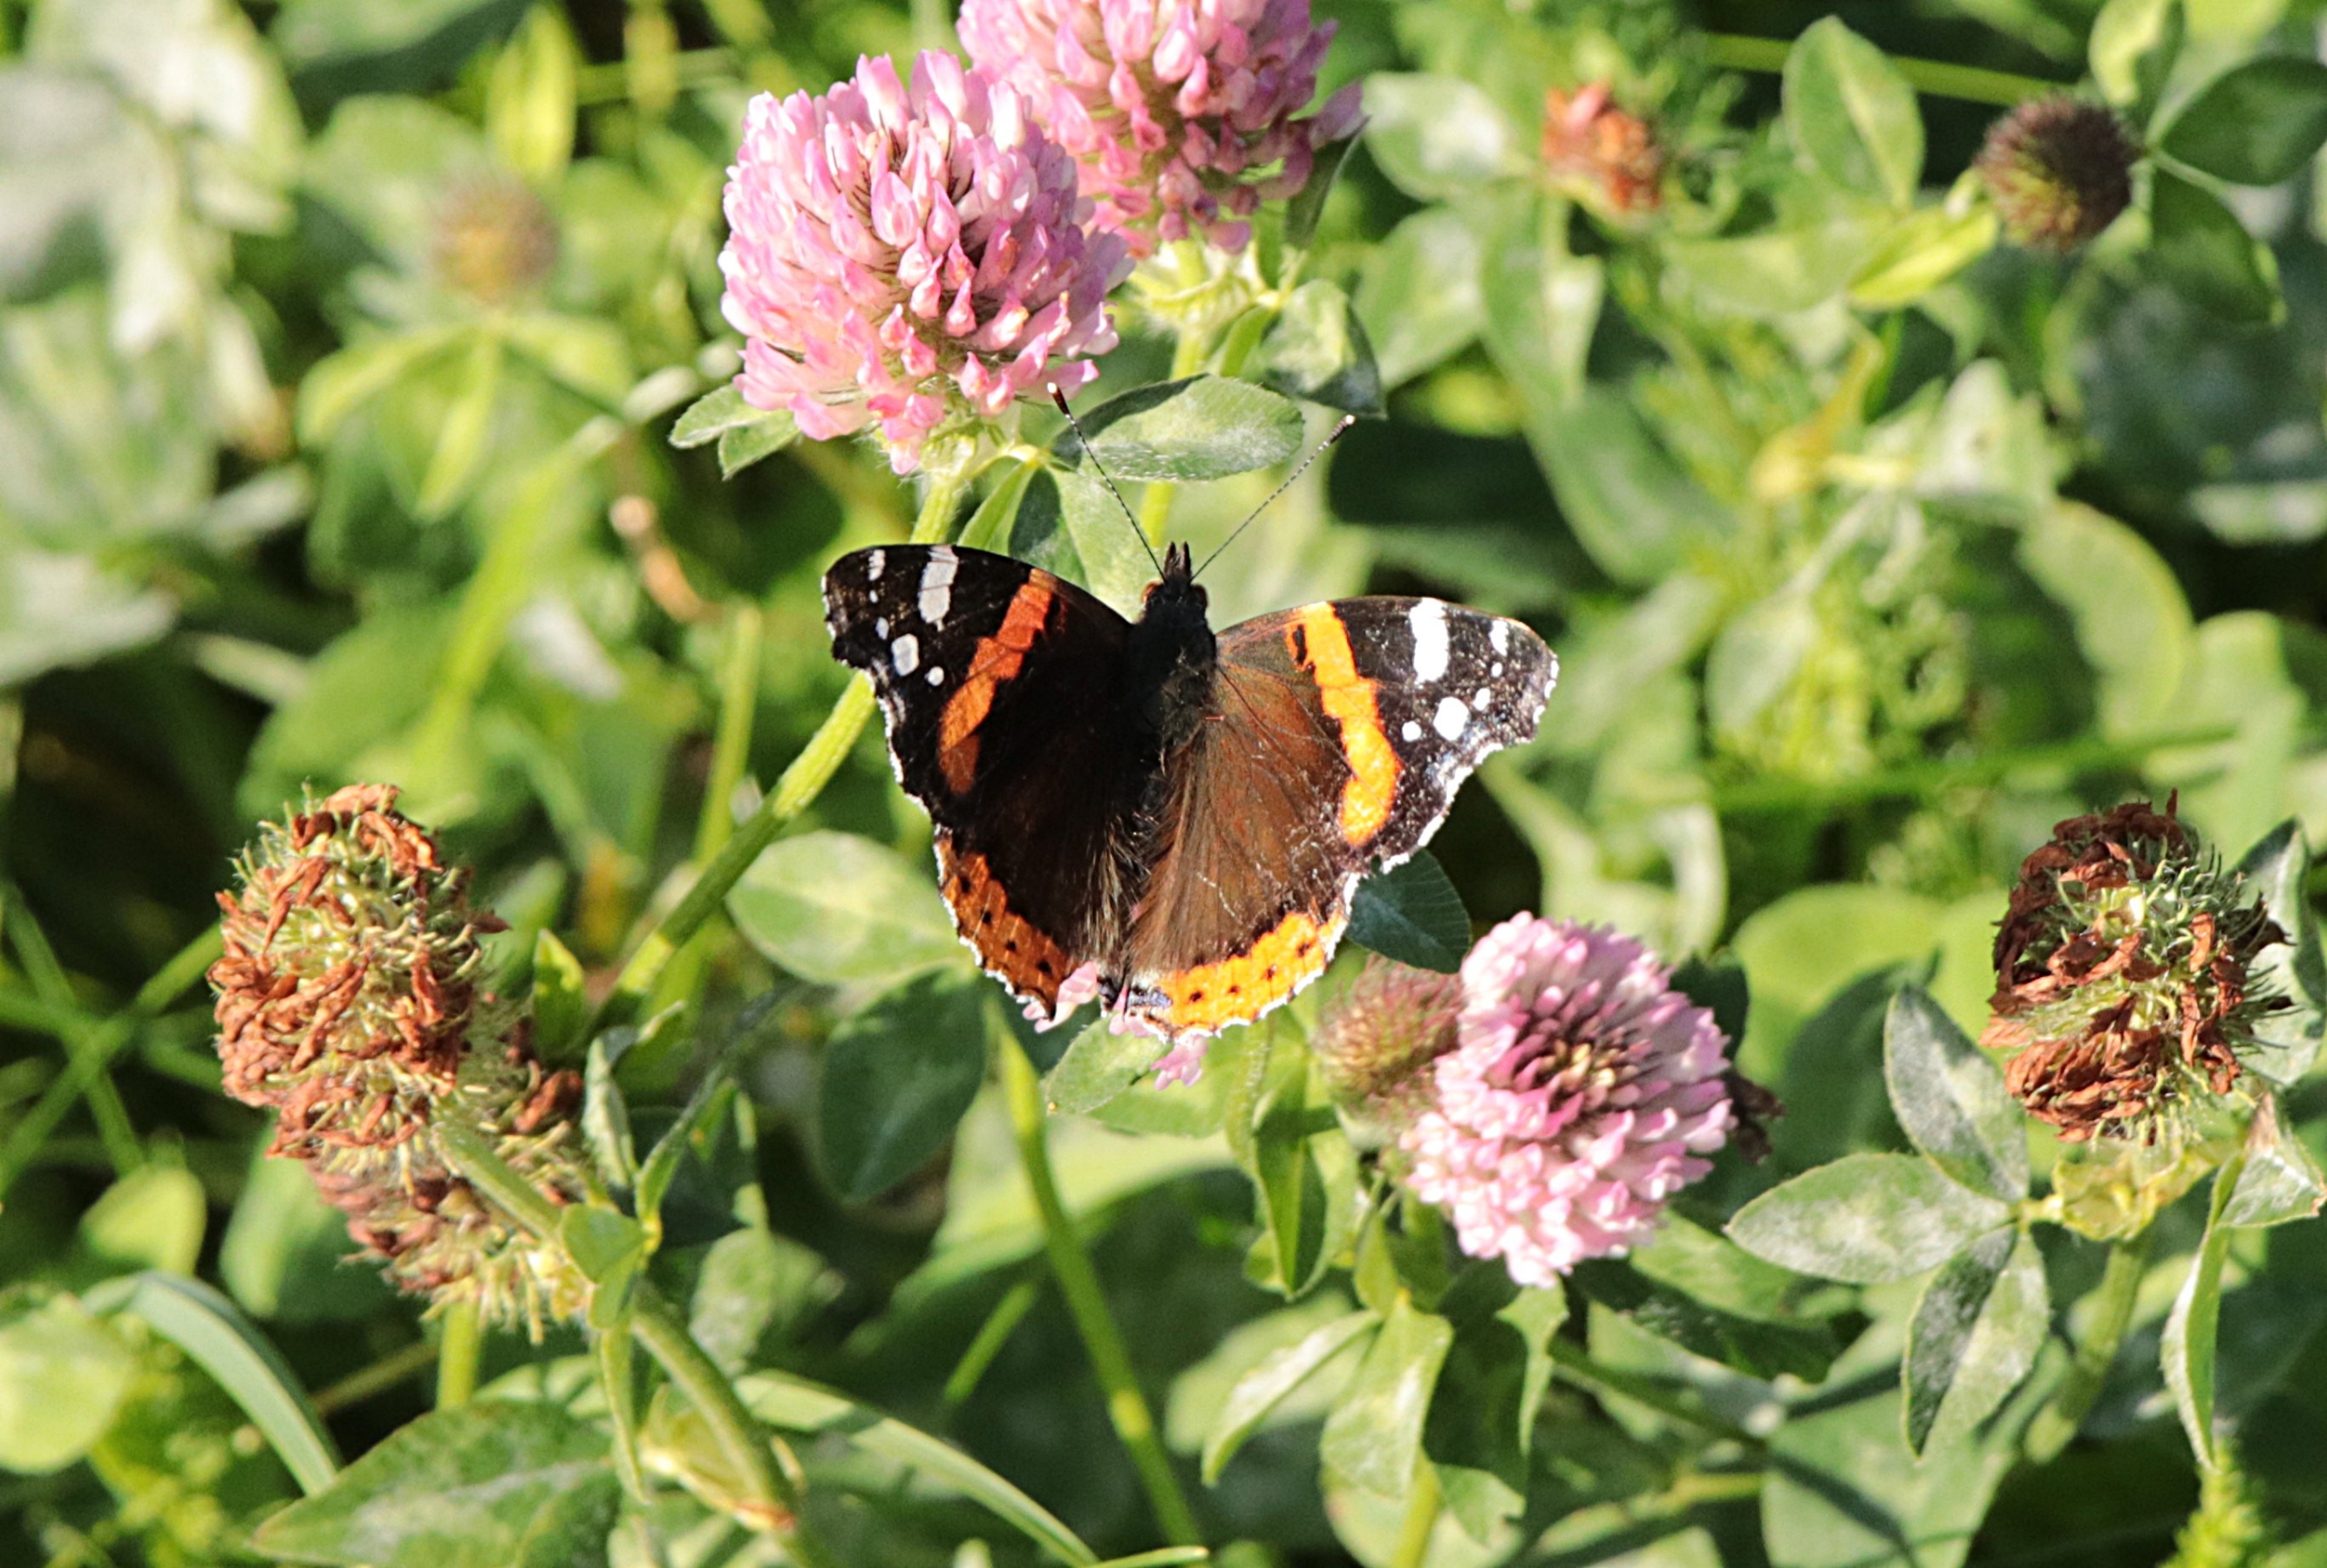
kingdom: Animalia
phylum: Arthropoda
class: Insecta
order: Lepidoptera
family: Nymphalidae
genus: Vanessa
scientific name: Vanessa atalanta
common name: Admiral
